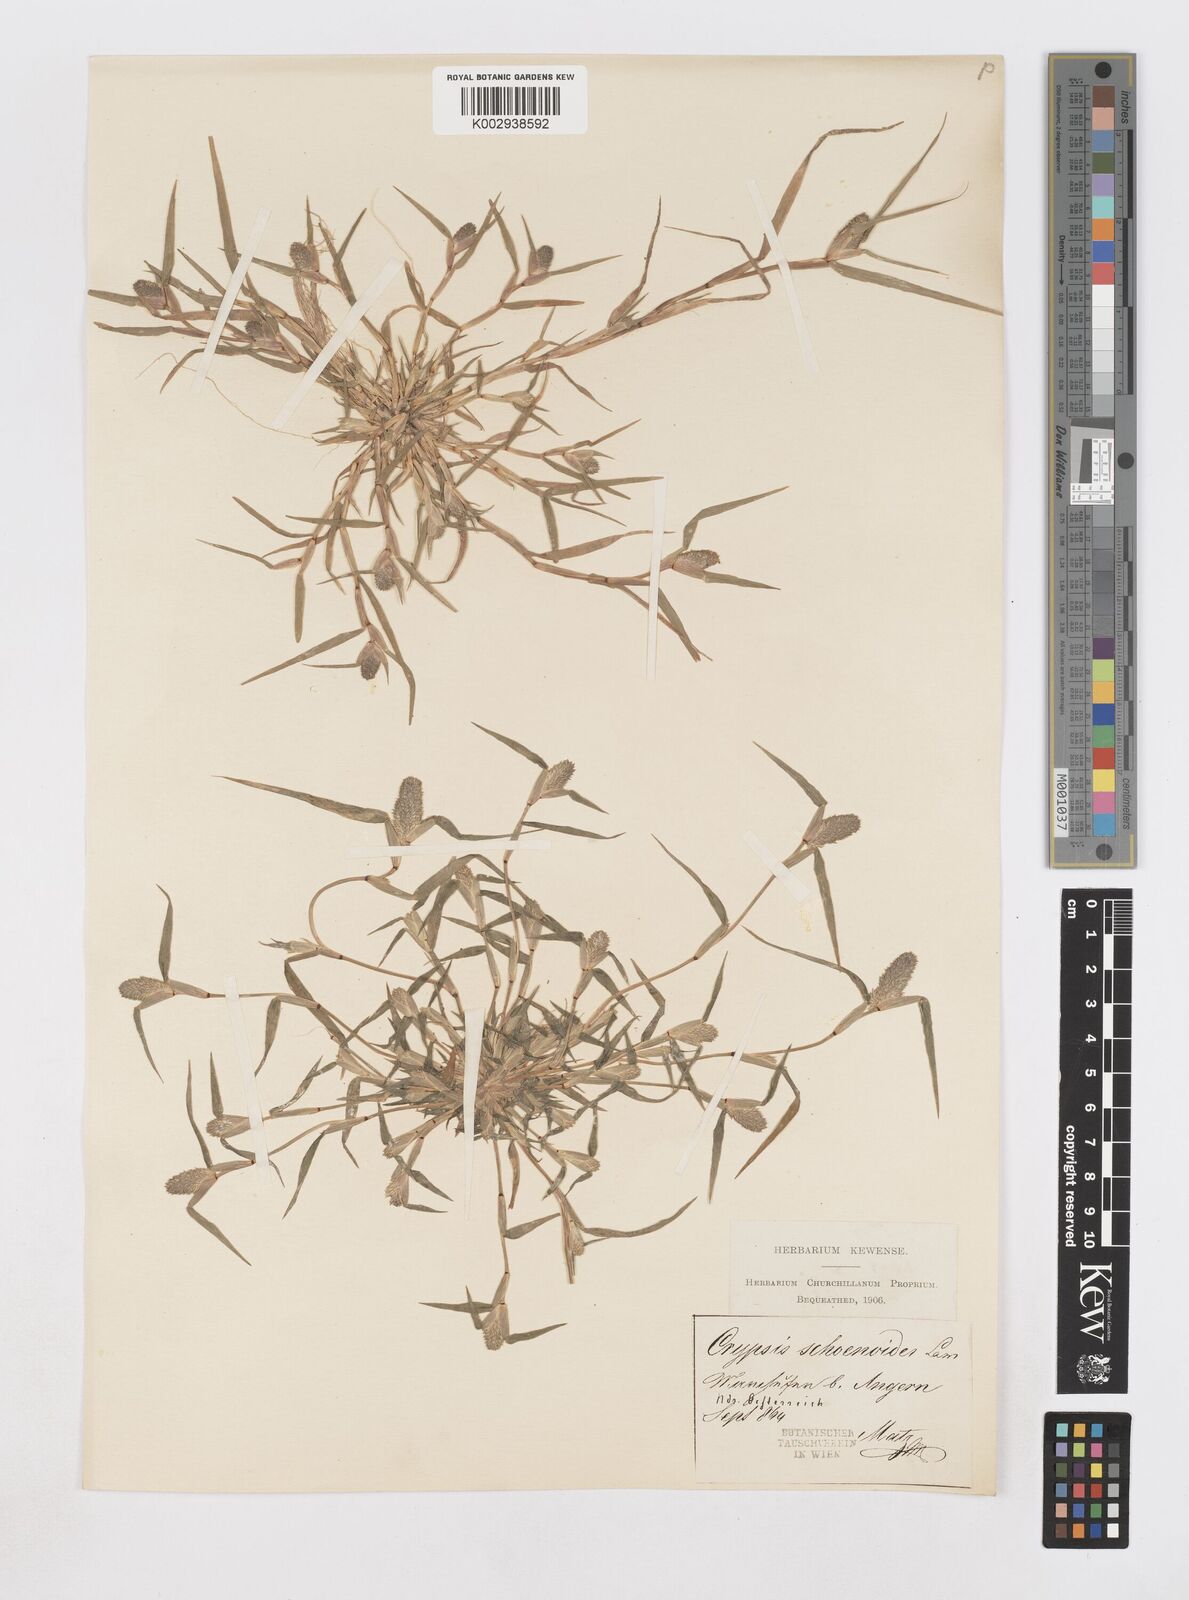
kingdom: Plantae
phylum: Tracheophyta
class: Liliopsida
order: Poales
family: Poaceae
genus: Sporobolus
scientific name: Sporobolus schoenoides
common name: Rush-like timothy
